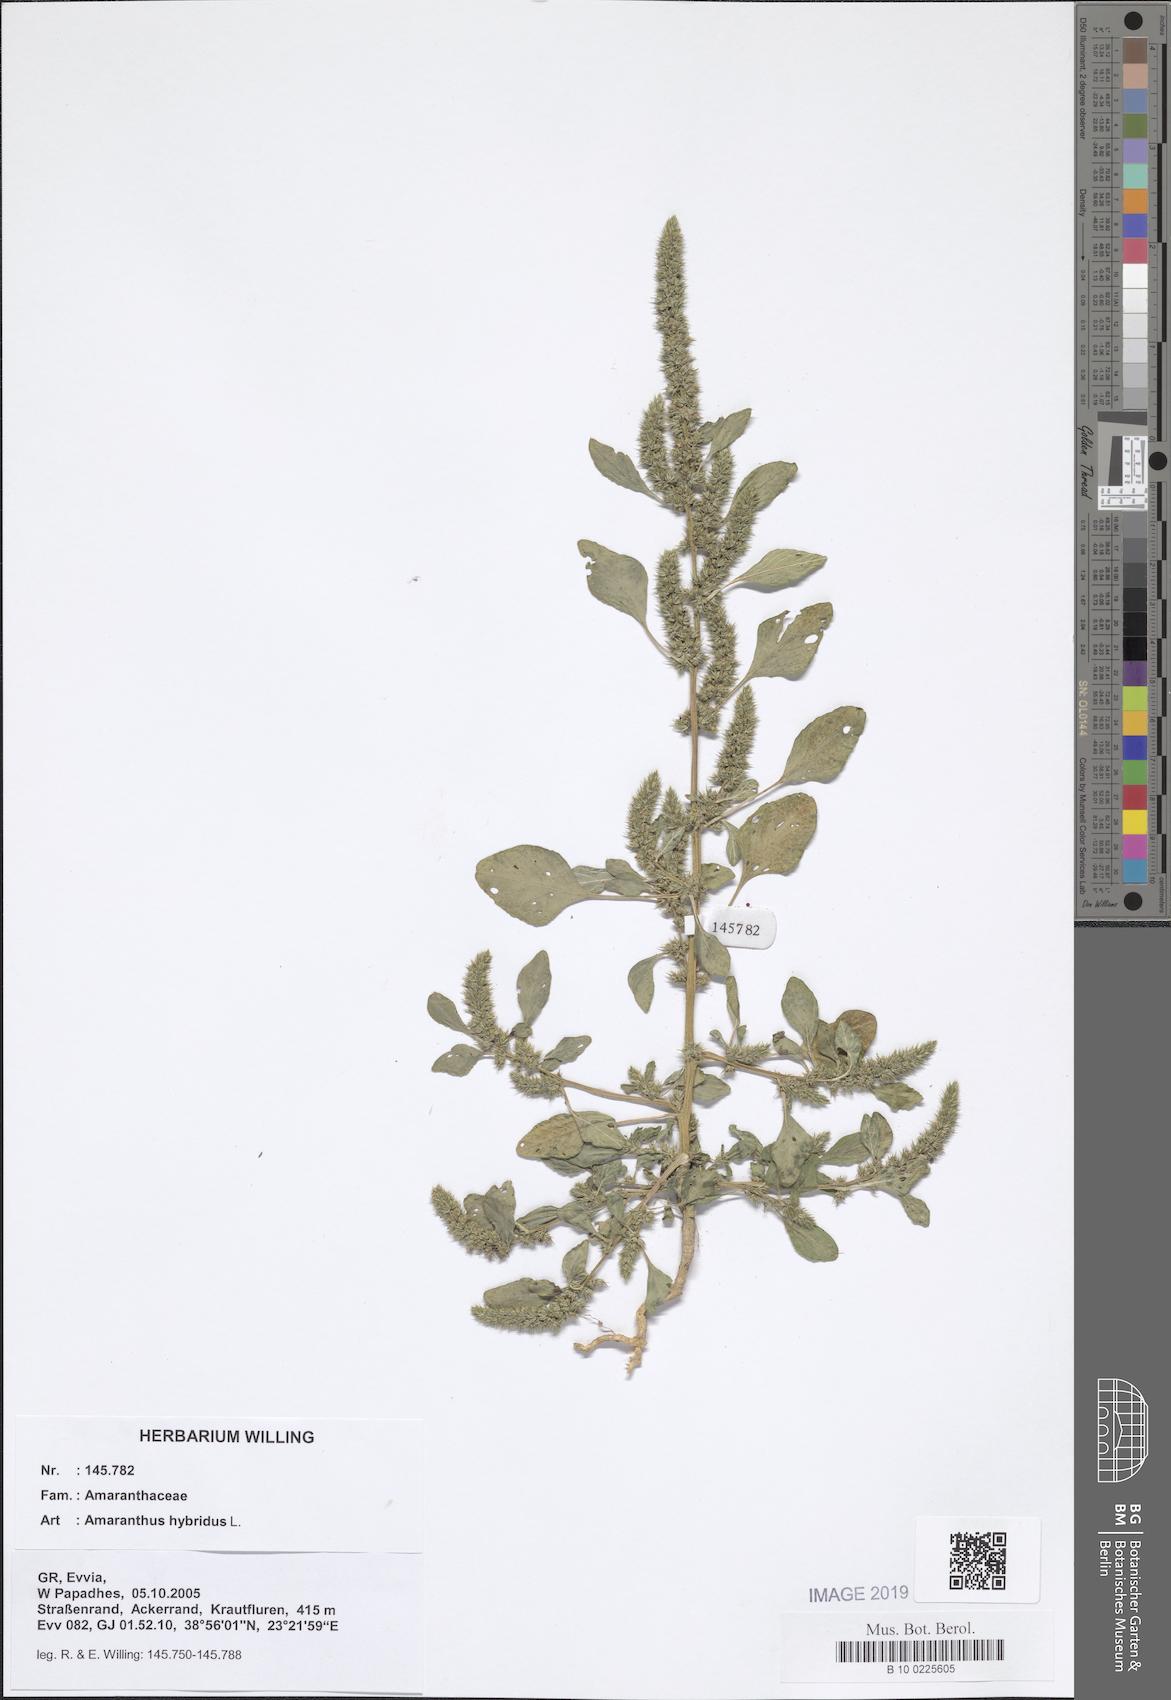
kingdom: Plantae
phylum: Tracheophyta
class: Magnoliopsida
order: Caryophyllales
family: Amaranthaceae
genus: Amaranthus
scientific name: Amaranthus hybridus
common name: Green amaranth
